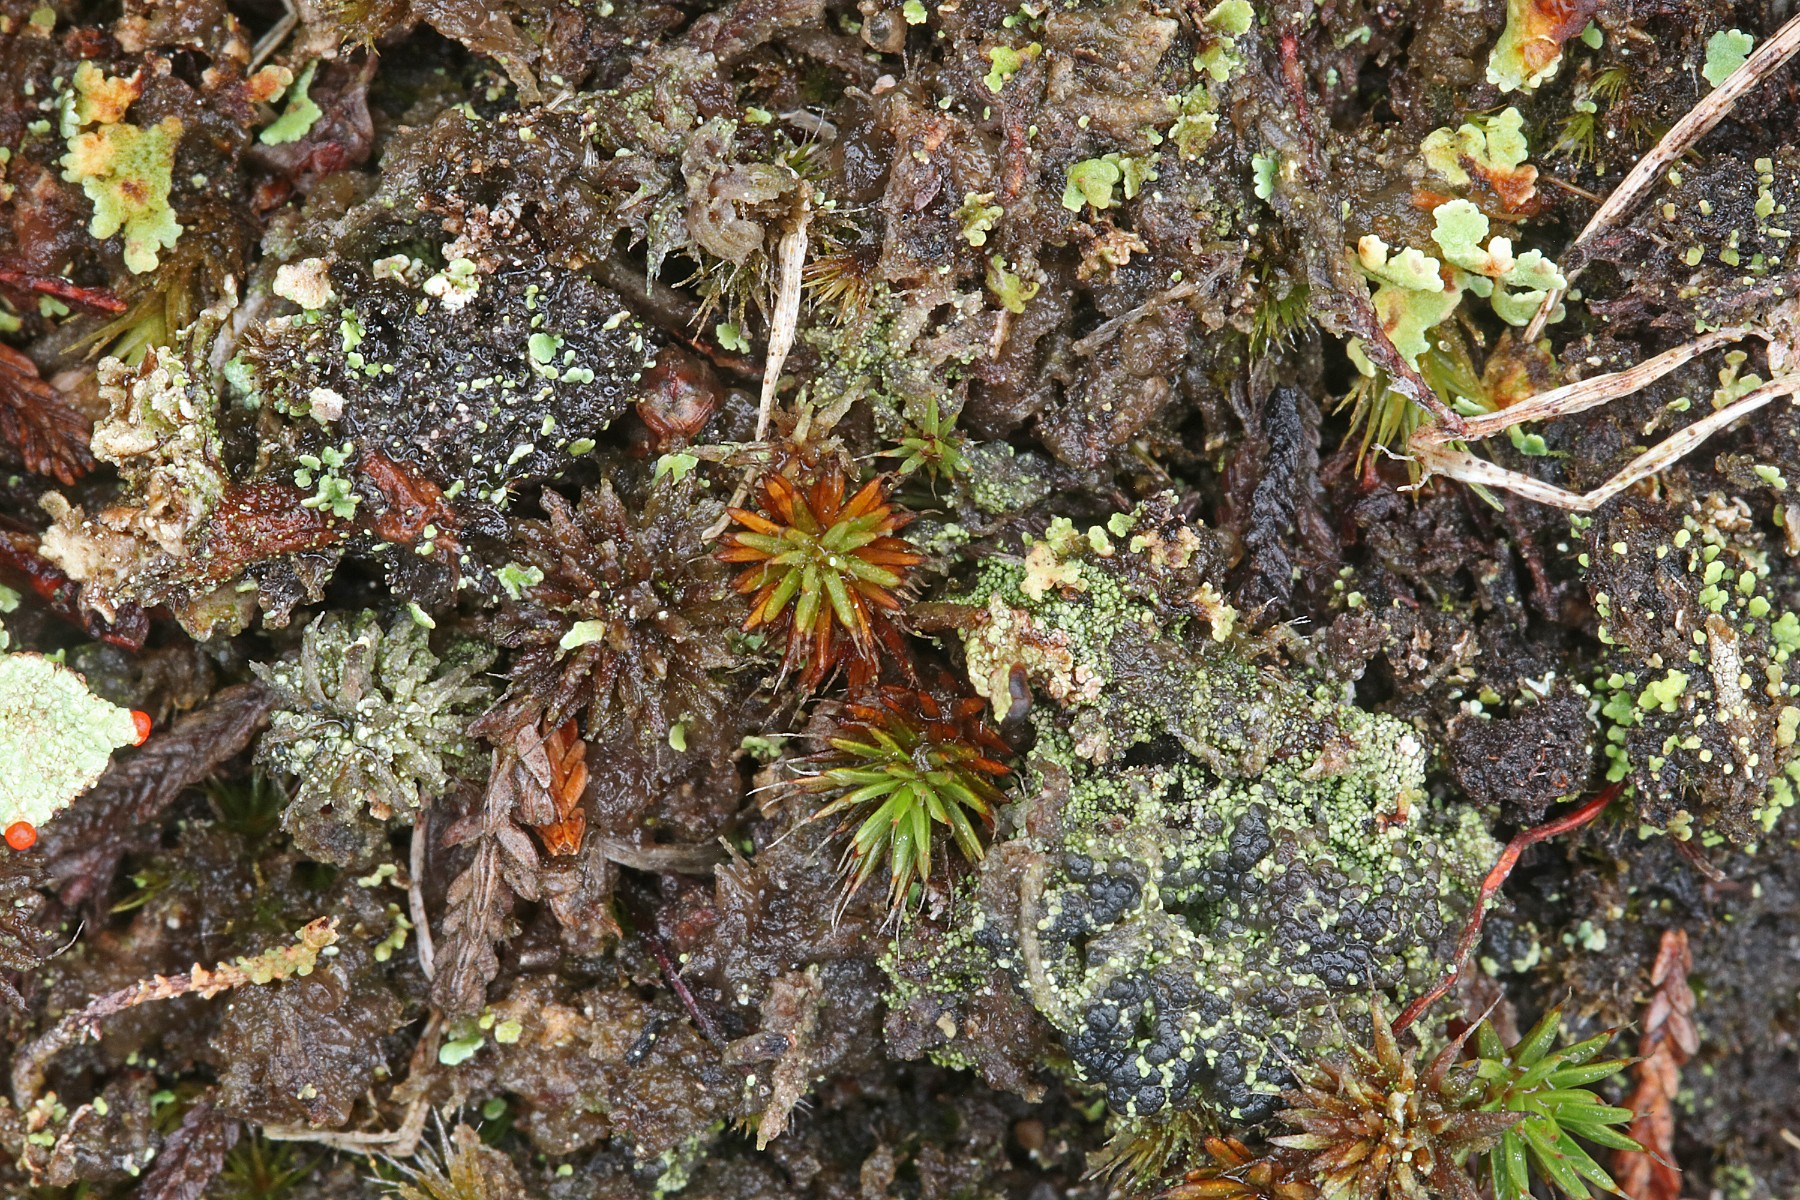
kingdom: Fungi
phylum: Ascomycota
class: Lecanoromycetes
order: Lecanorales
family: Byssolomataceae
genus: Micarea
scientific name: Micarea lignaria
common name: tørve-knaplav
